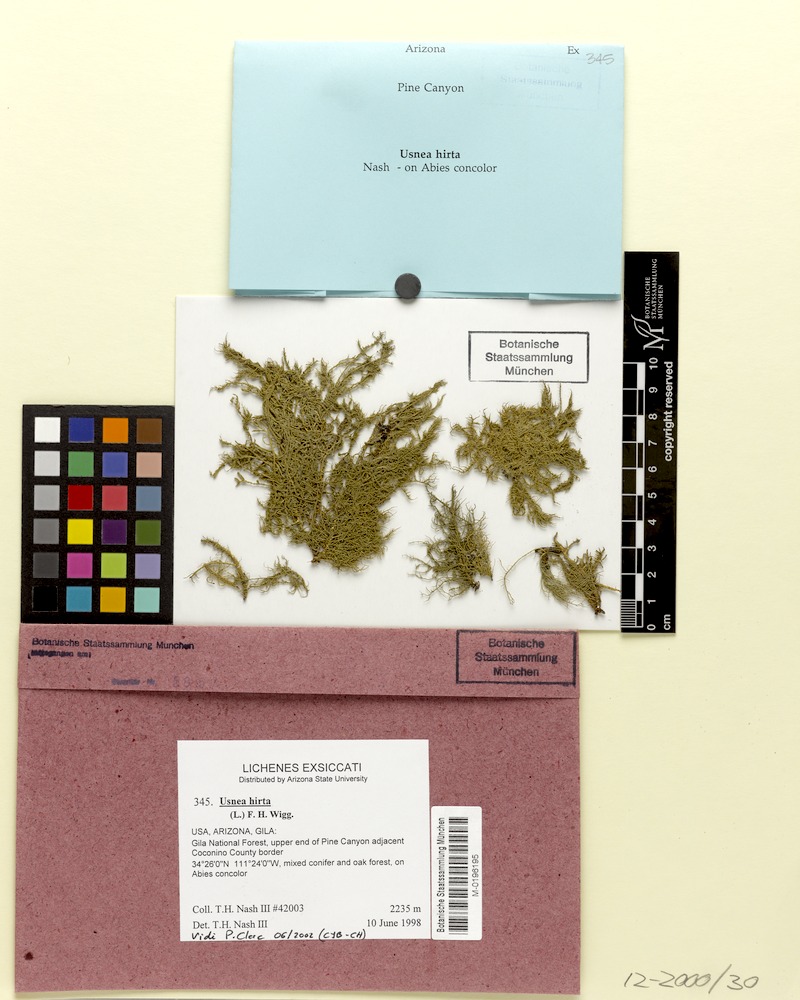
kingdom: Fungi
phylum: Ascomycota
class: Lecanoromycetes
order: Lecanorales
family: Parmeliaceae
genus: Usnea
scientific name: Usnea hirta
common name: Bristly beard lichen
